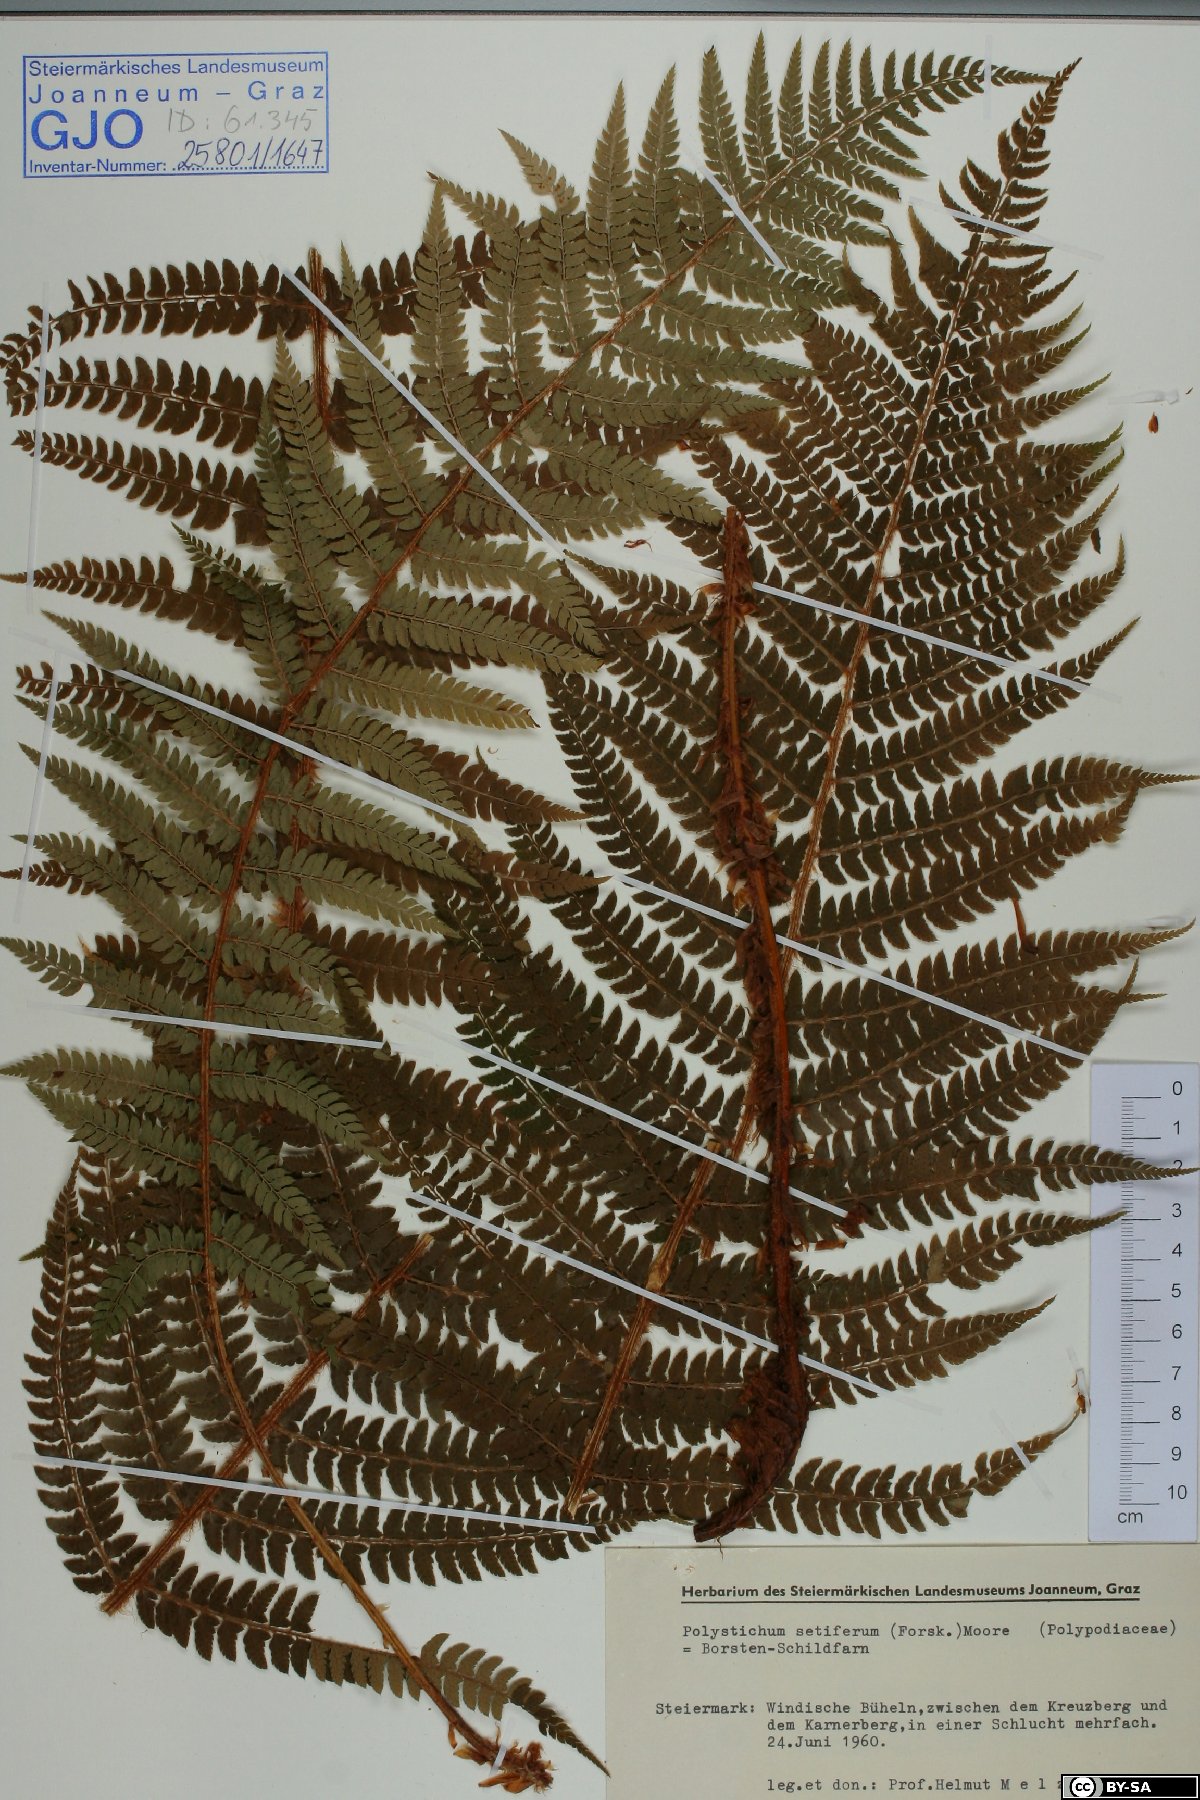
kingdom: Plantae
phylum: Tracheophyta
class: Polypodiopsida
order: Polypodiales
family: Dryopteridaceae
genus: Polystichum
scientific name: Polystichum setiferum
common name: Soft shield-fern
